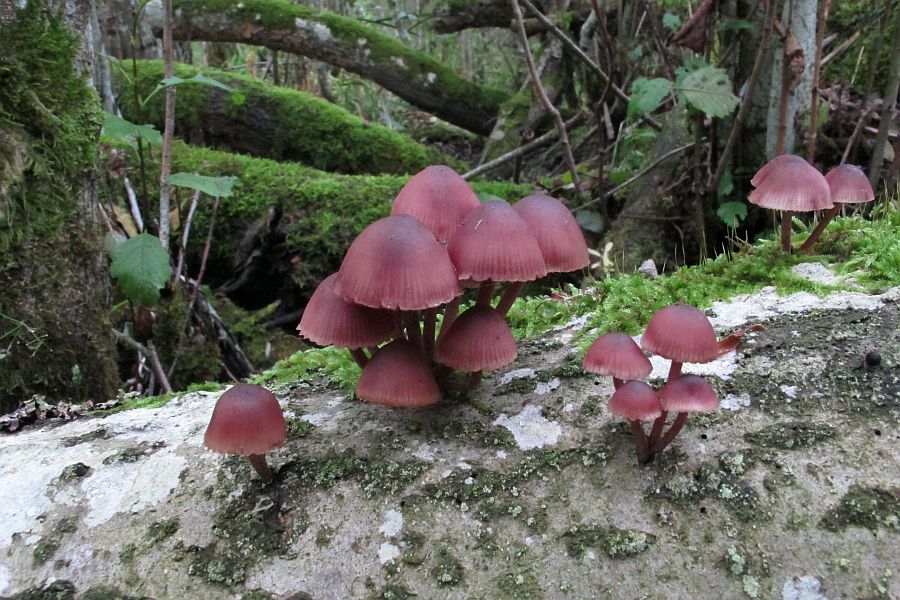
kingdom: Fungi
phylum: Basidiomycota
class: Agaricomycetes
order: Agaricales
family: Mycenaceae
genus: Mycena
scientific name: Mycena haematopus
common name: blødende huesvamp
